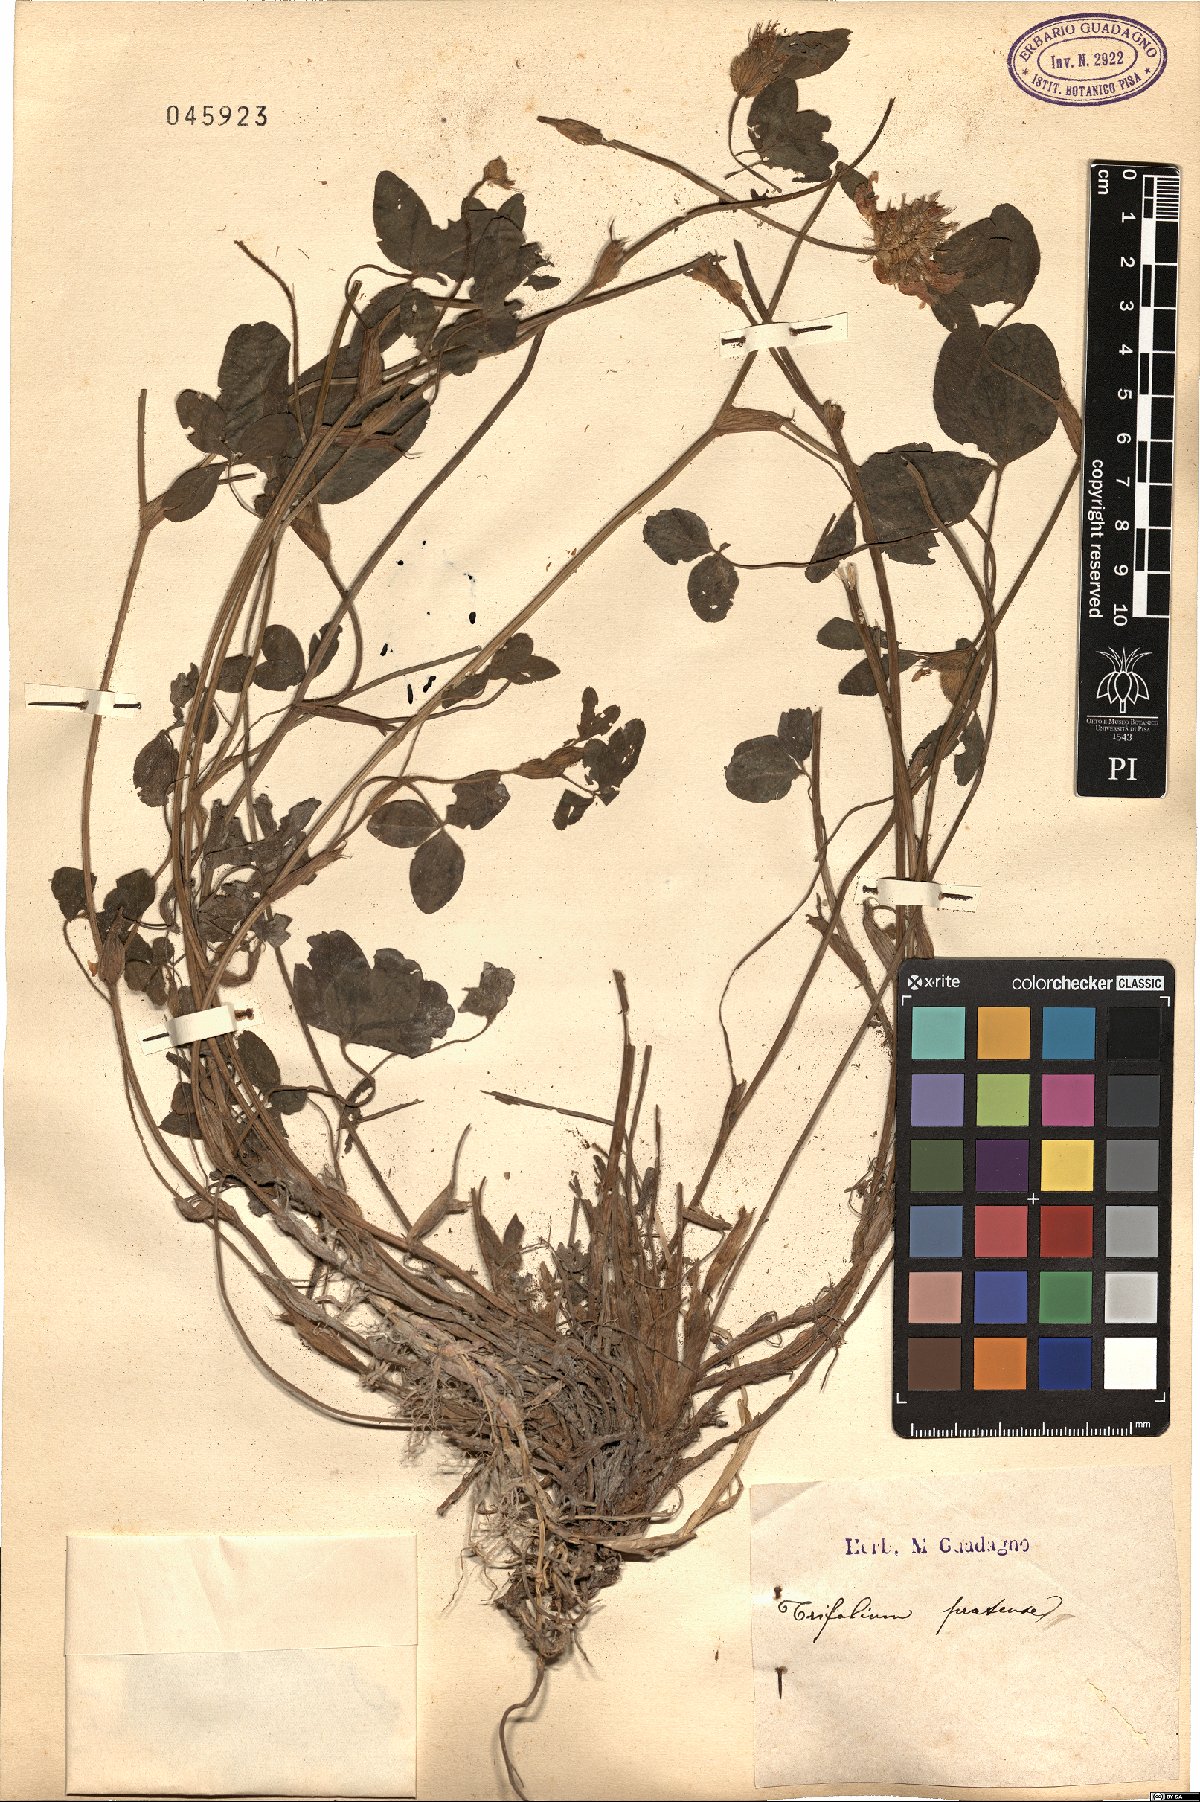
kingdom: Plantae
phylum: Tracheophyta
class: Magnoliopsida
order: Fabales
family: Fabaceae
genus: Trifolium
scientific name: Trifolium pratense
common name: Red clover
